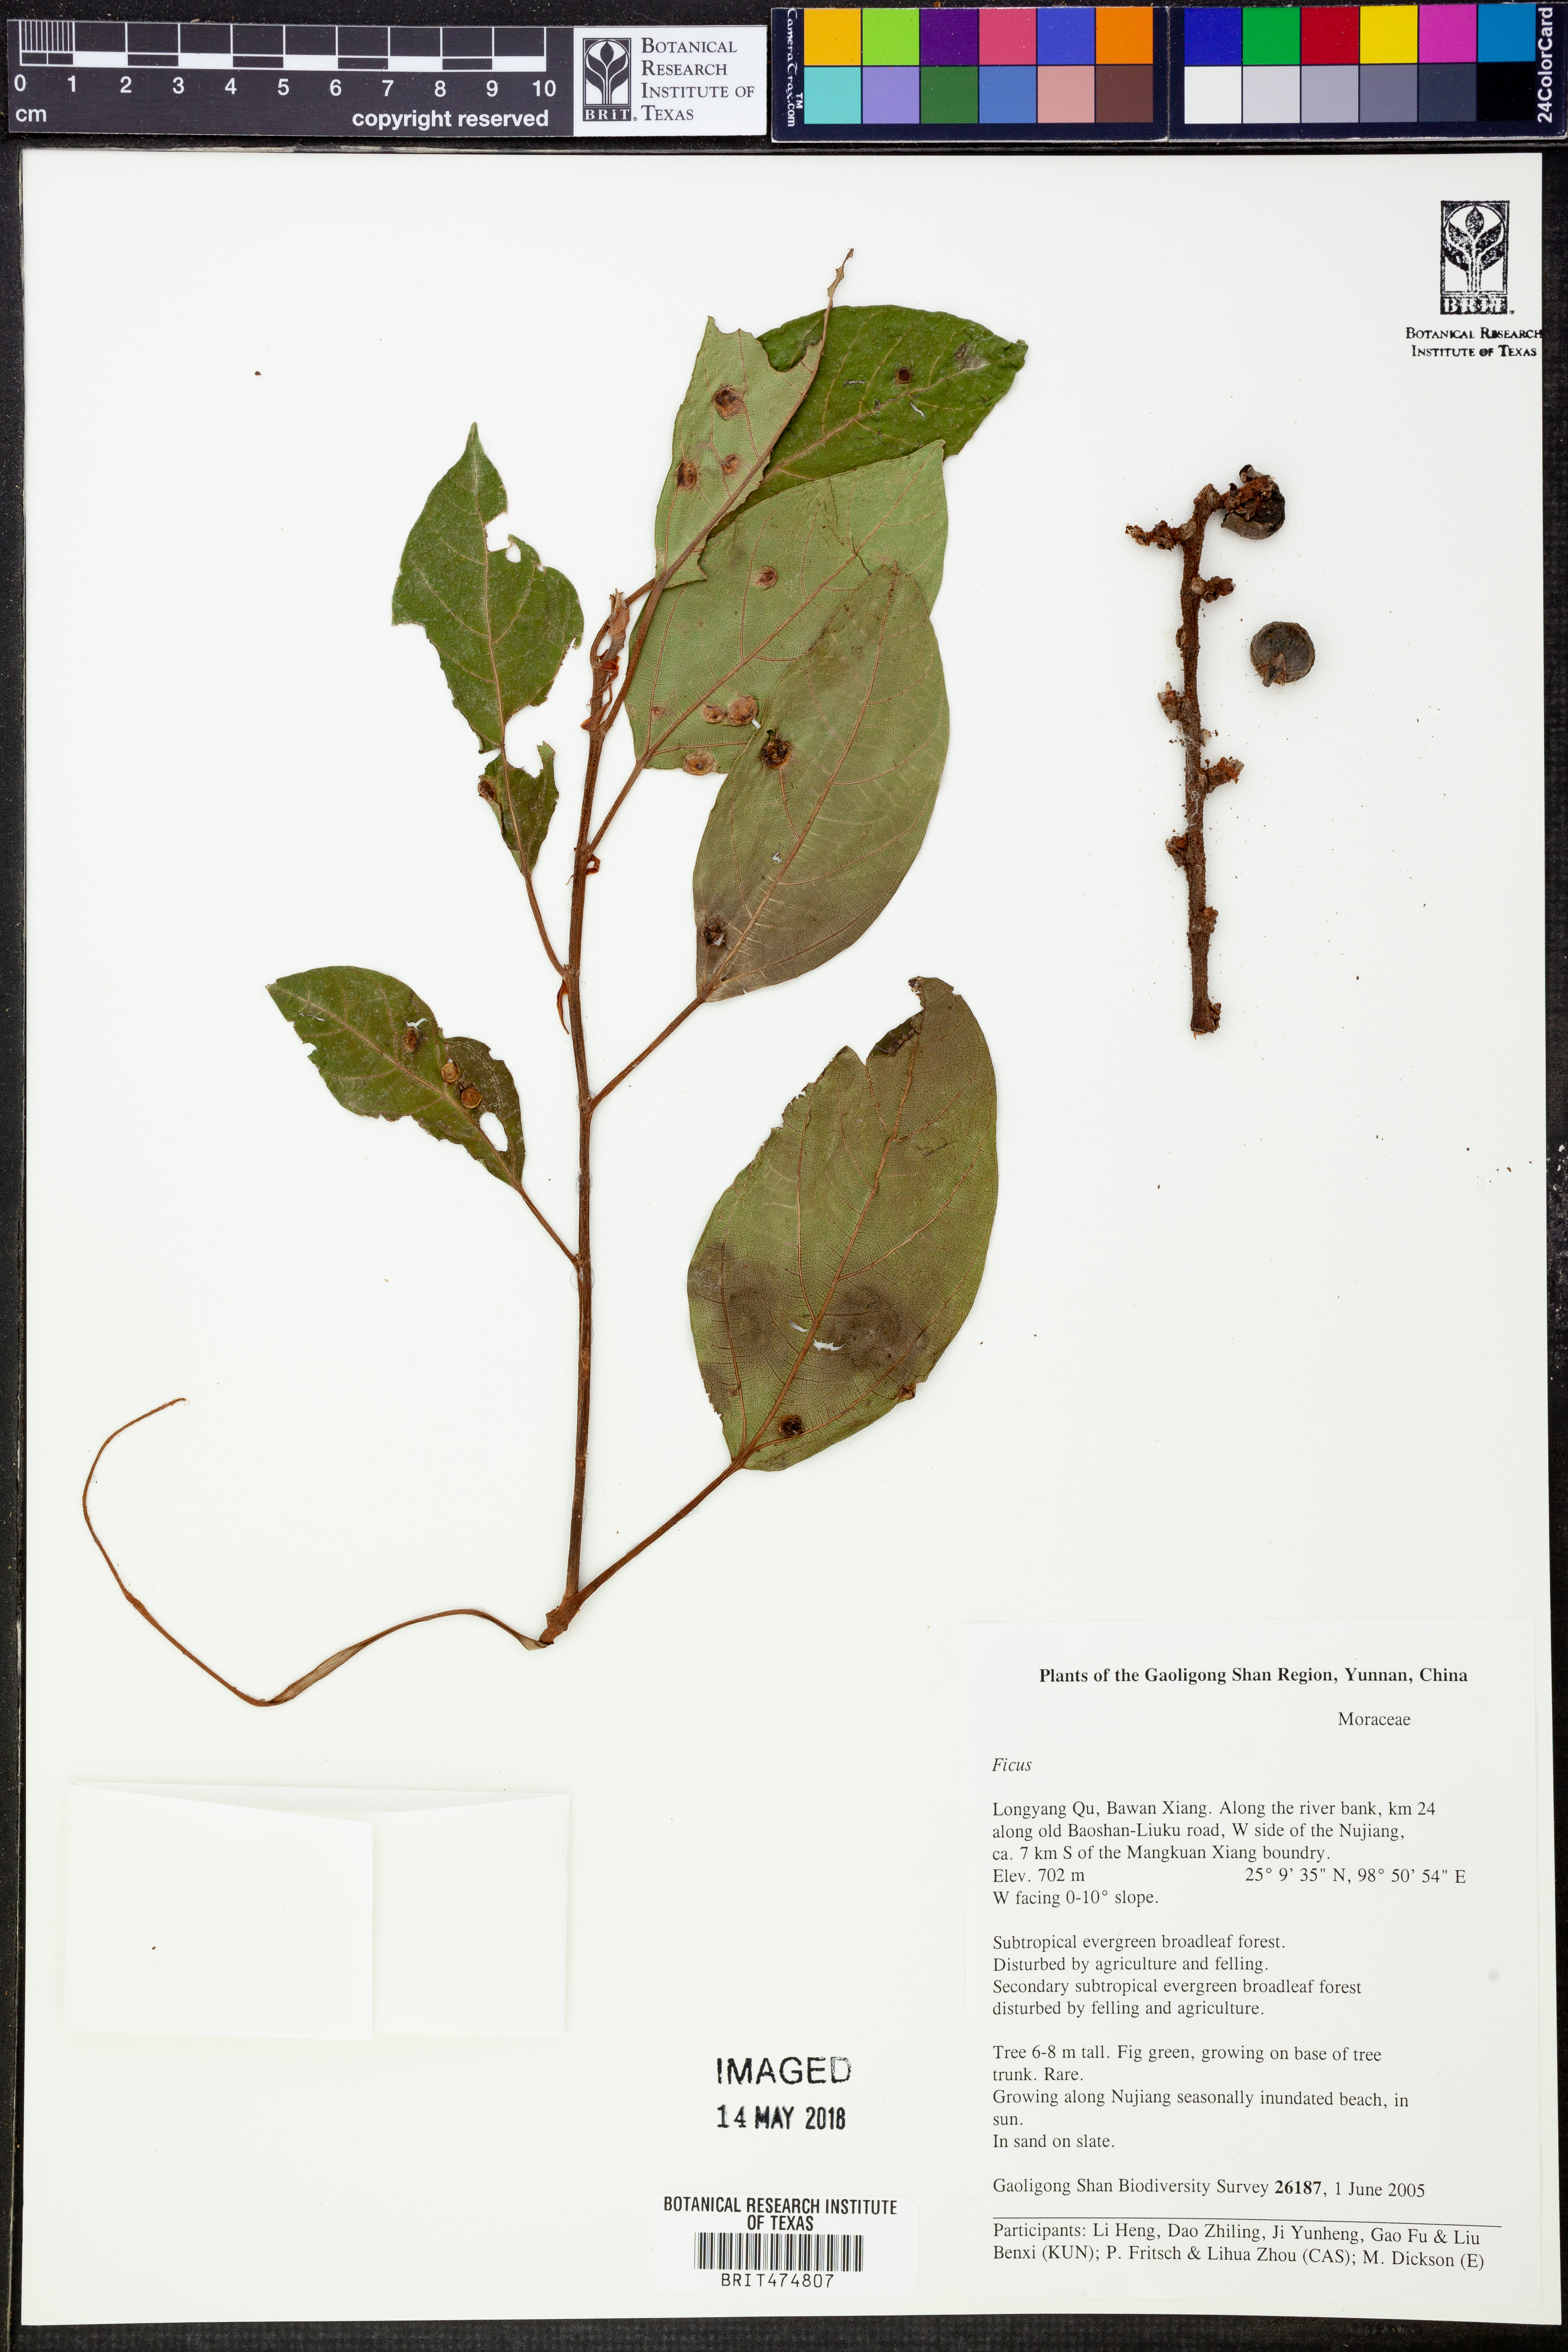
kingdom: Plantae
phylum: Tracheophyta
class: Magnoliopsida
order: Rosales
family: Moraceae
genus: Ficus
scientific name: Ficus
